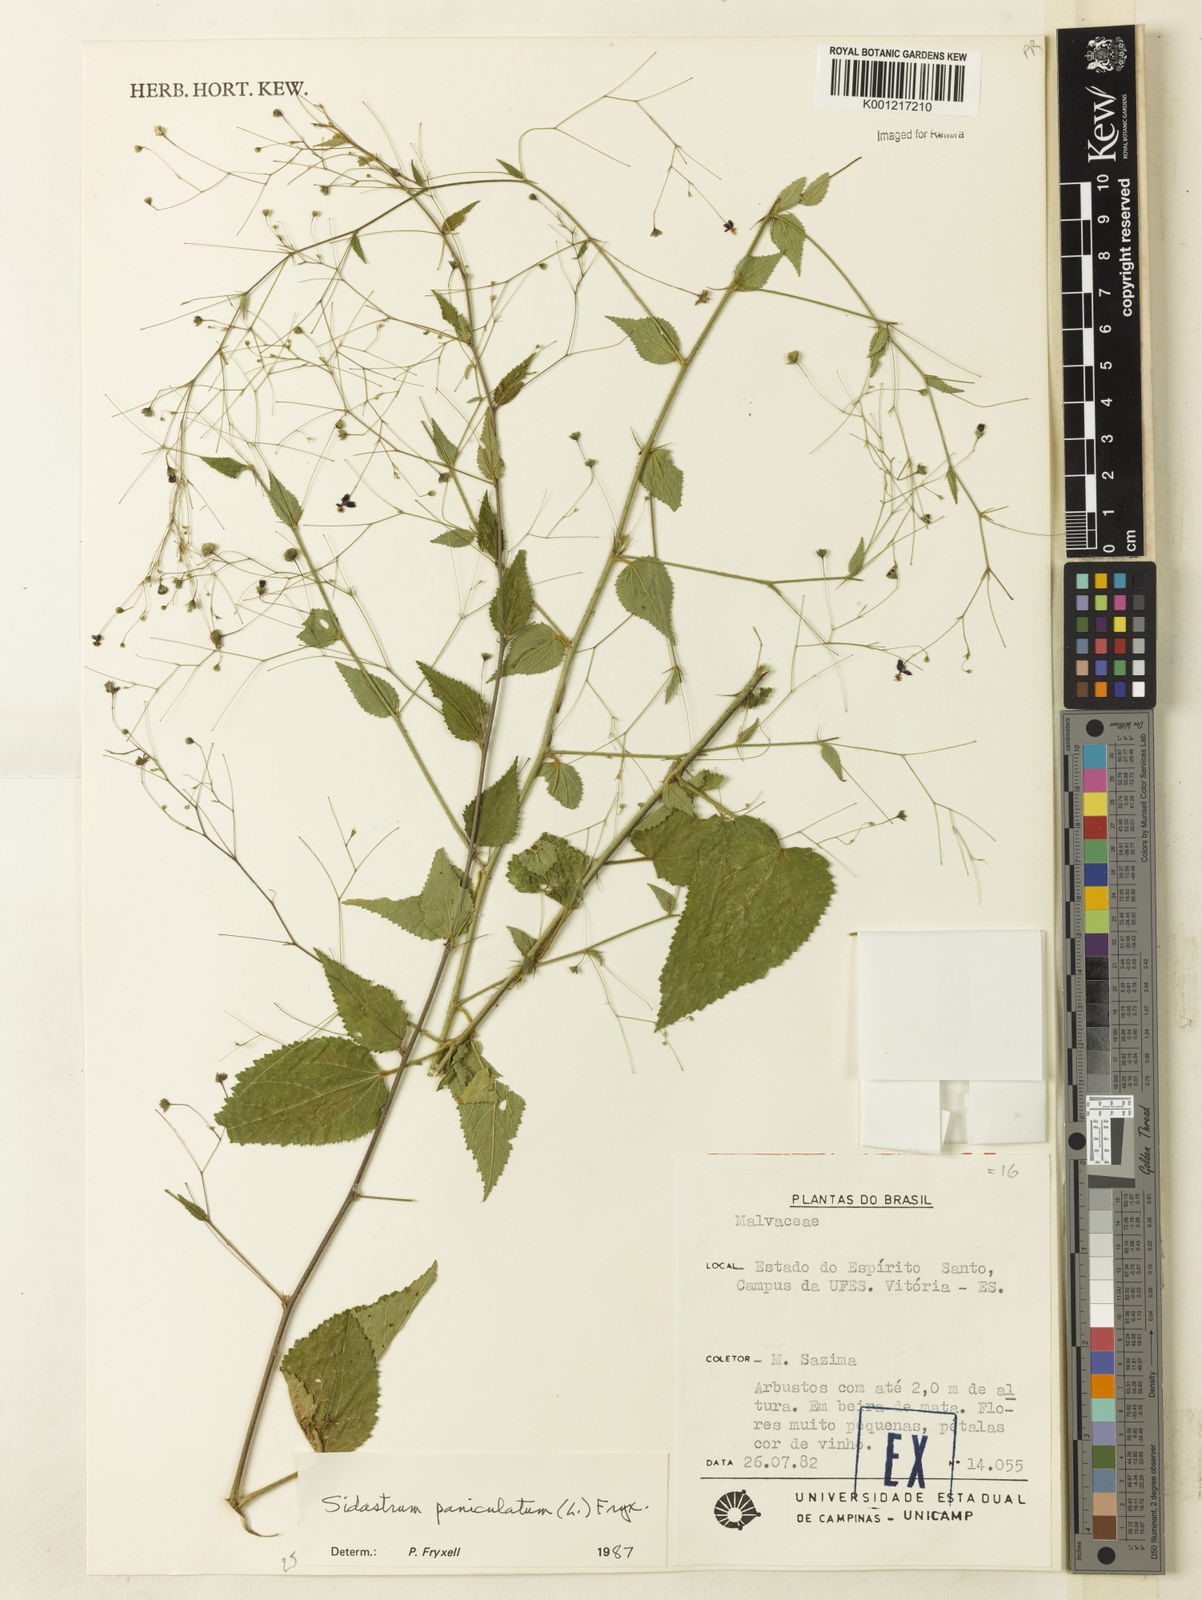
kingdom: Plantae
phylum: Tracheophyta
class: Magnoliopsida
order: Malvales
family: Malvaceae
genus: Sidastrum
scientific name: Sidastrum paniculatum
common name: Panicled sandmallow
